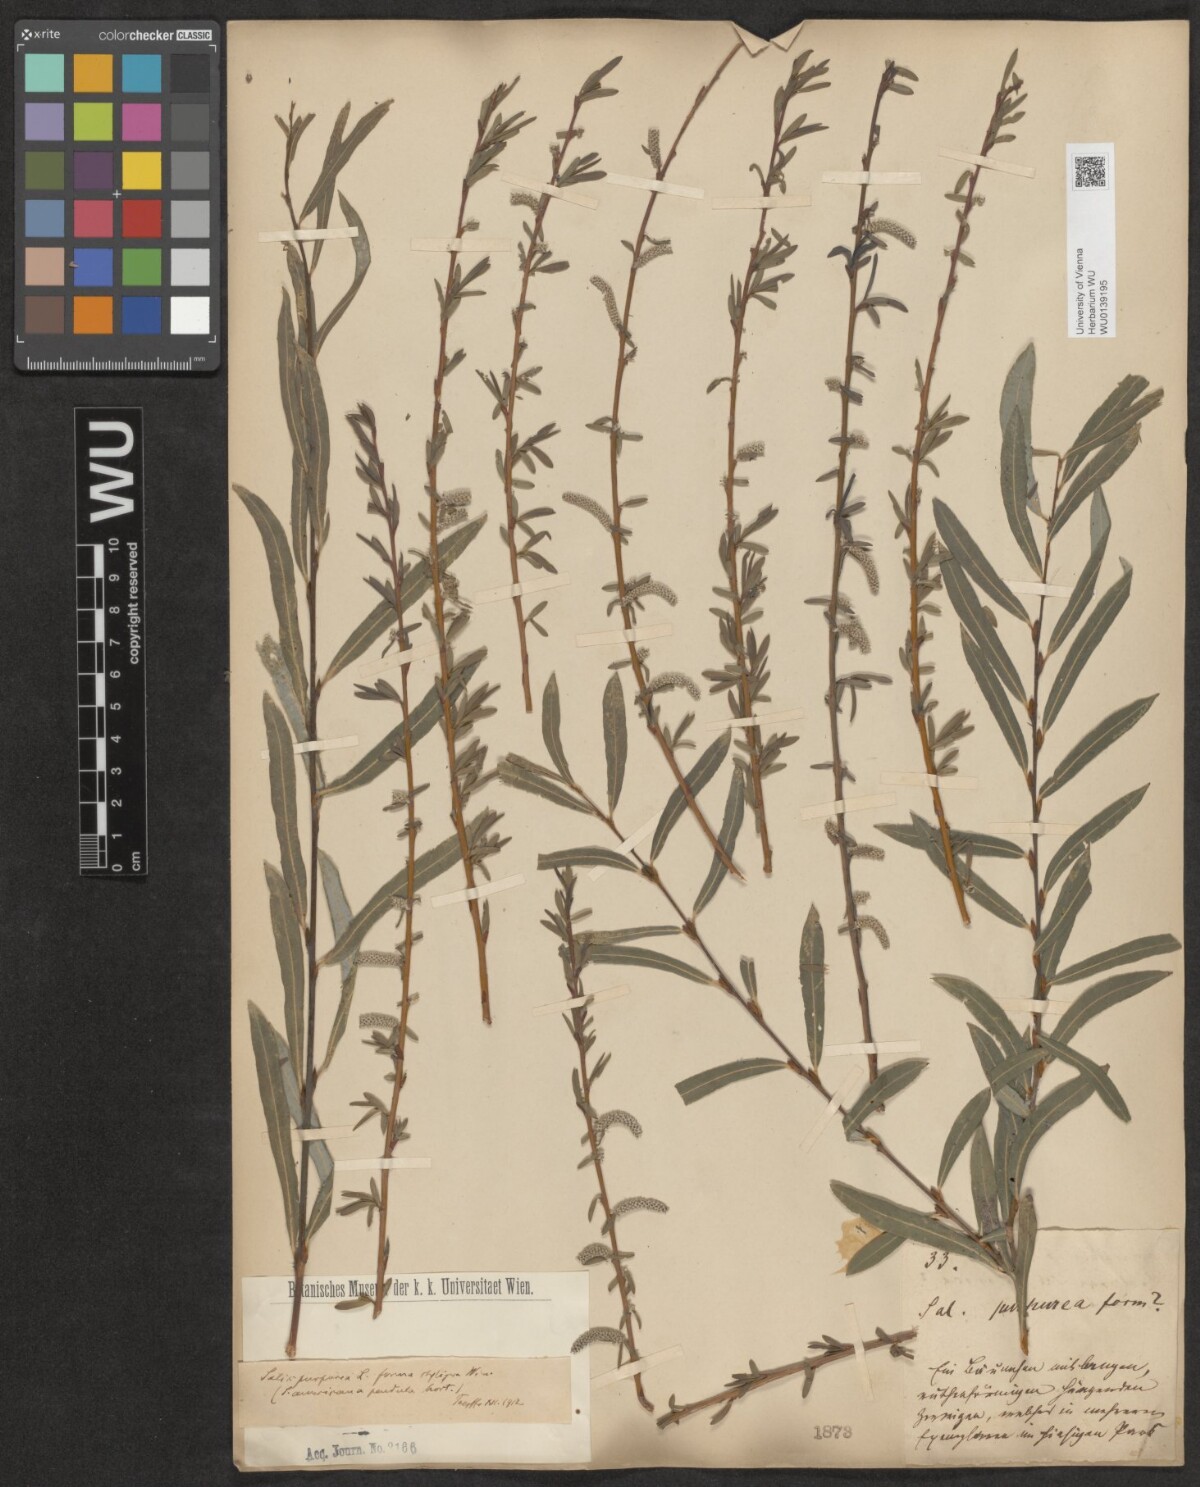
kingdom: Plantae
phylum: Tracheophyta
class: Magnoliopsida
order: Malpighiales
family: Salicaceae
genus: Salix
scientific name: Salix purpurea
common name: Purple willow
